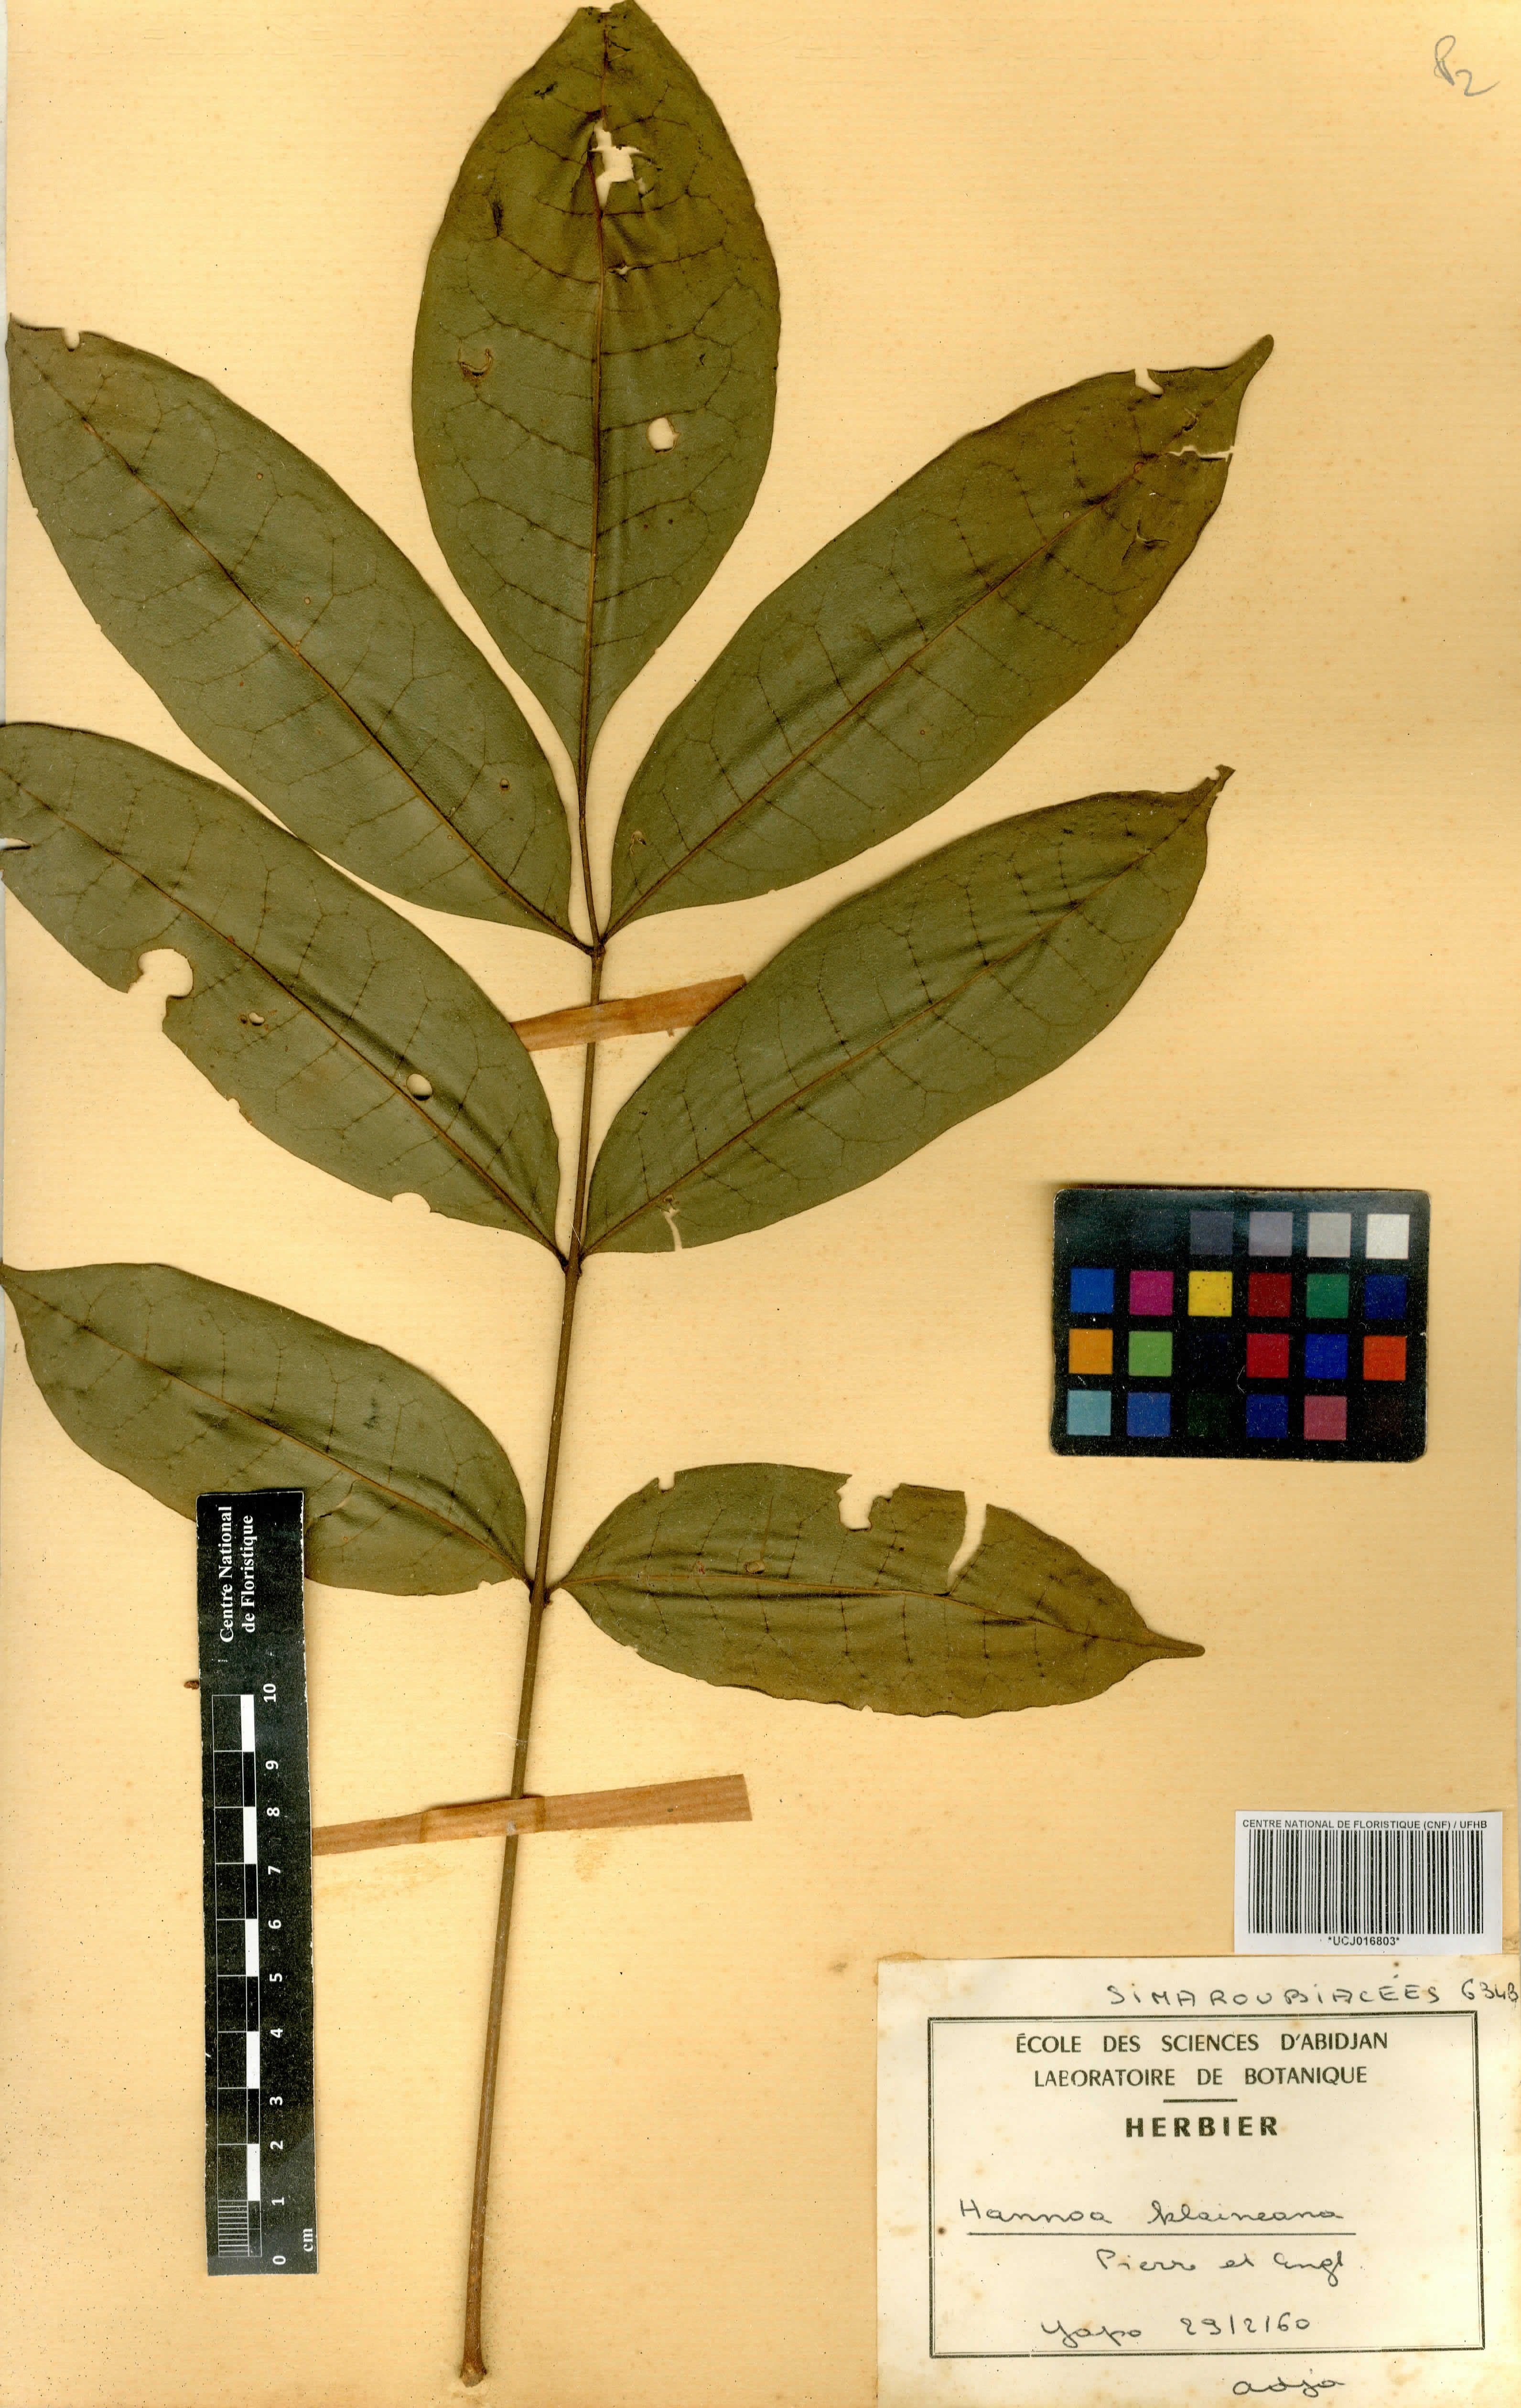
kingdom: Plantae
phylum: Tracheophyta
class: Magnoliopsida
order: Sapindales
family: Simaroubaceae
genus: Odyendyea
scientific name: Odyendyea klaineana
